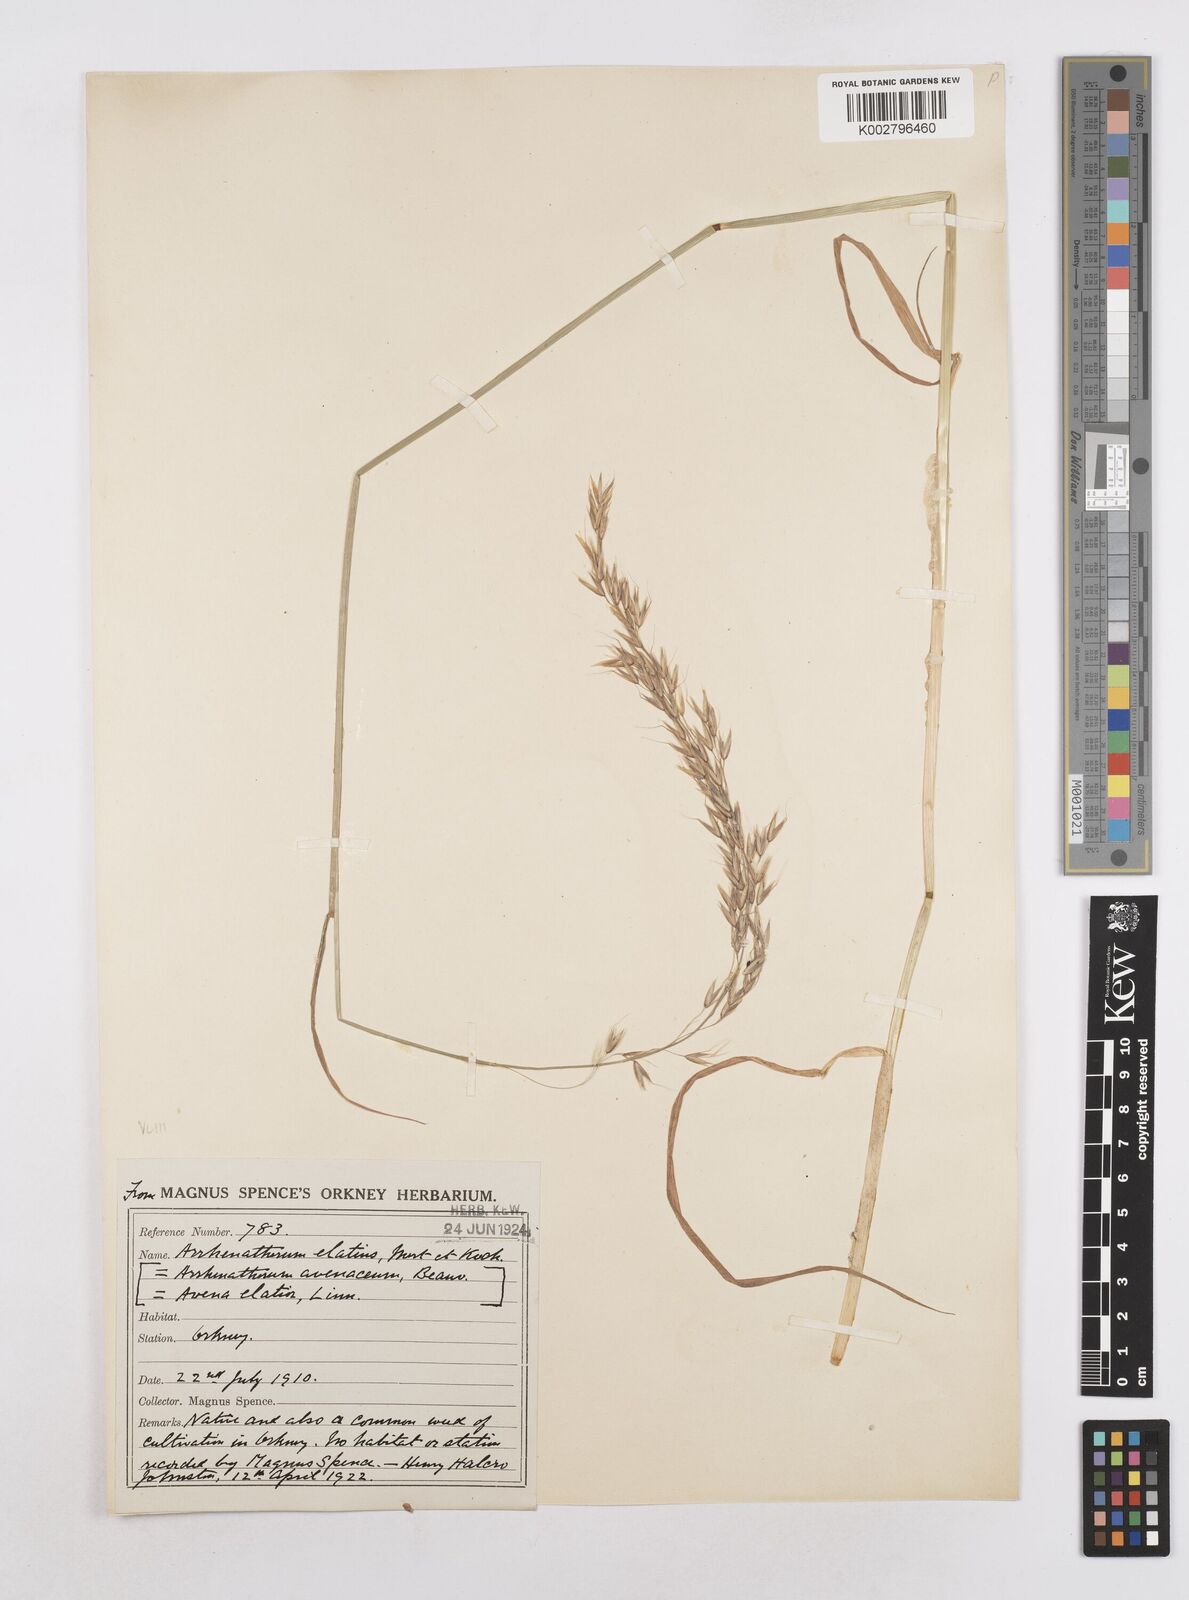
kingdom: Plantae
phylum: Tracheophyta
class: Liliopsida
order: Poales
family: Poaceae
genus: Arrhenatherum
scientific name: Arrhenatherum elatius
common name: Tall oatgrass
